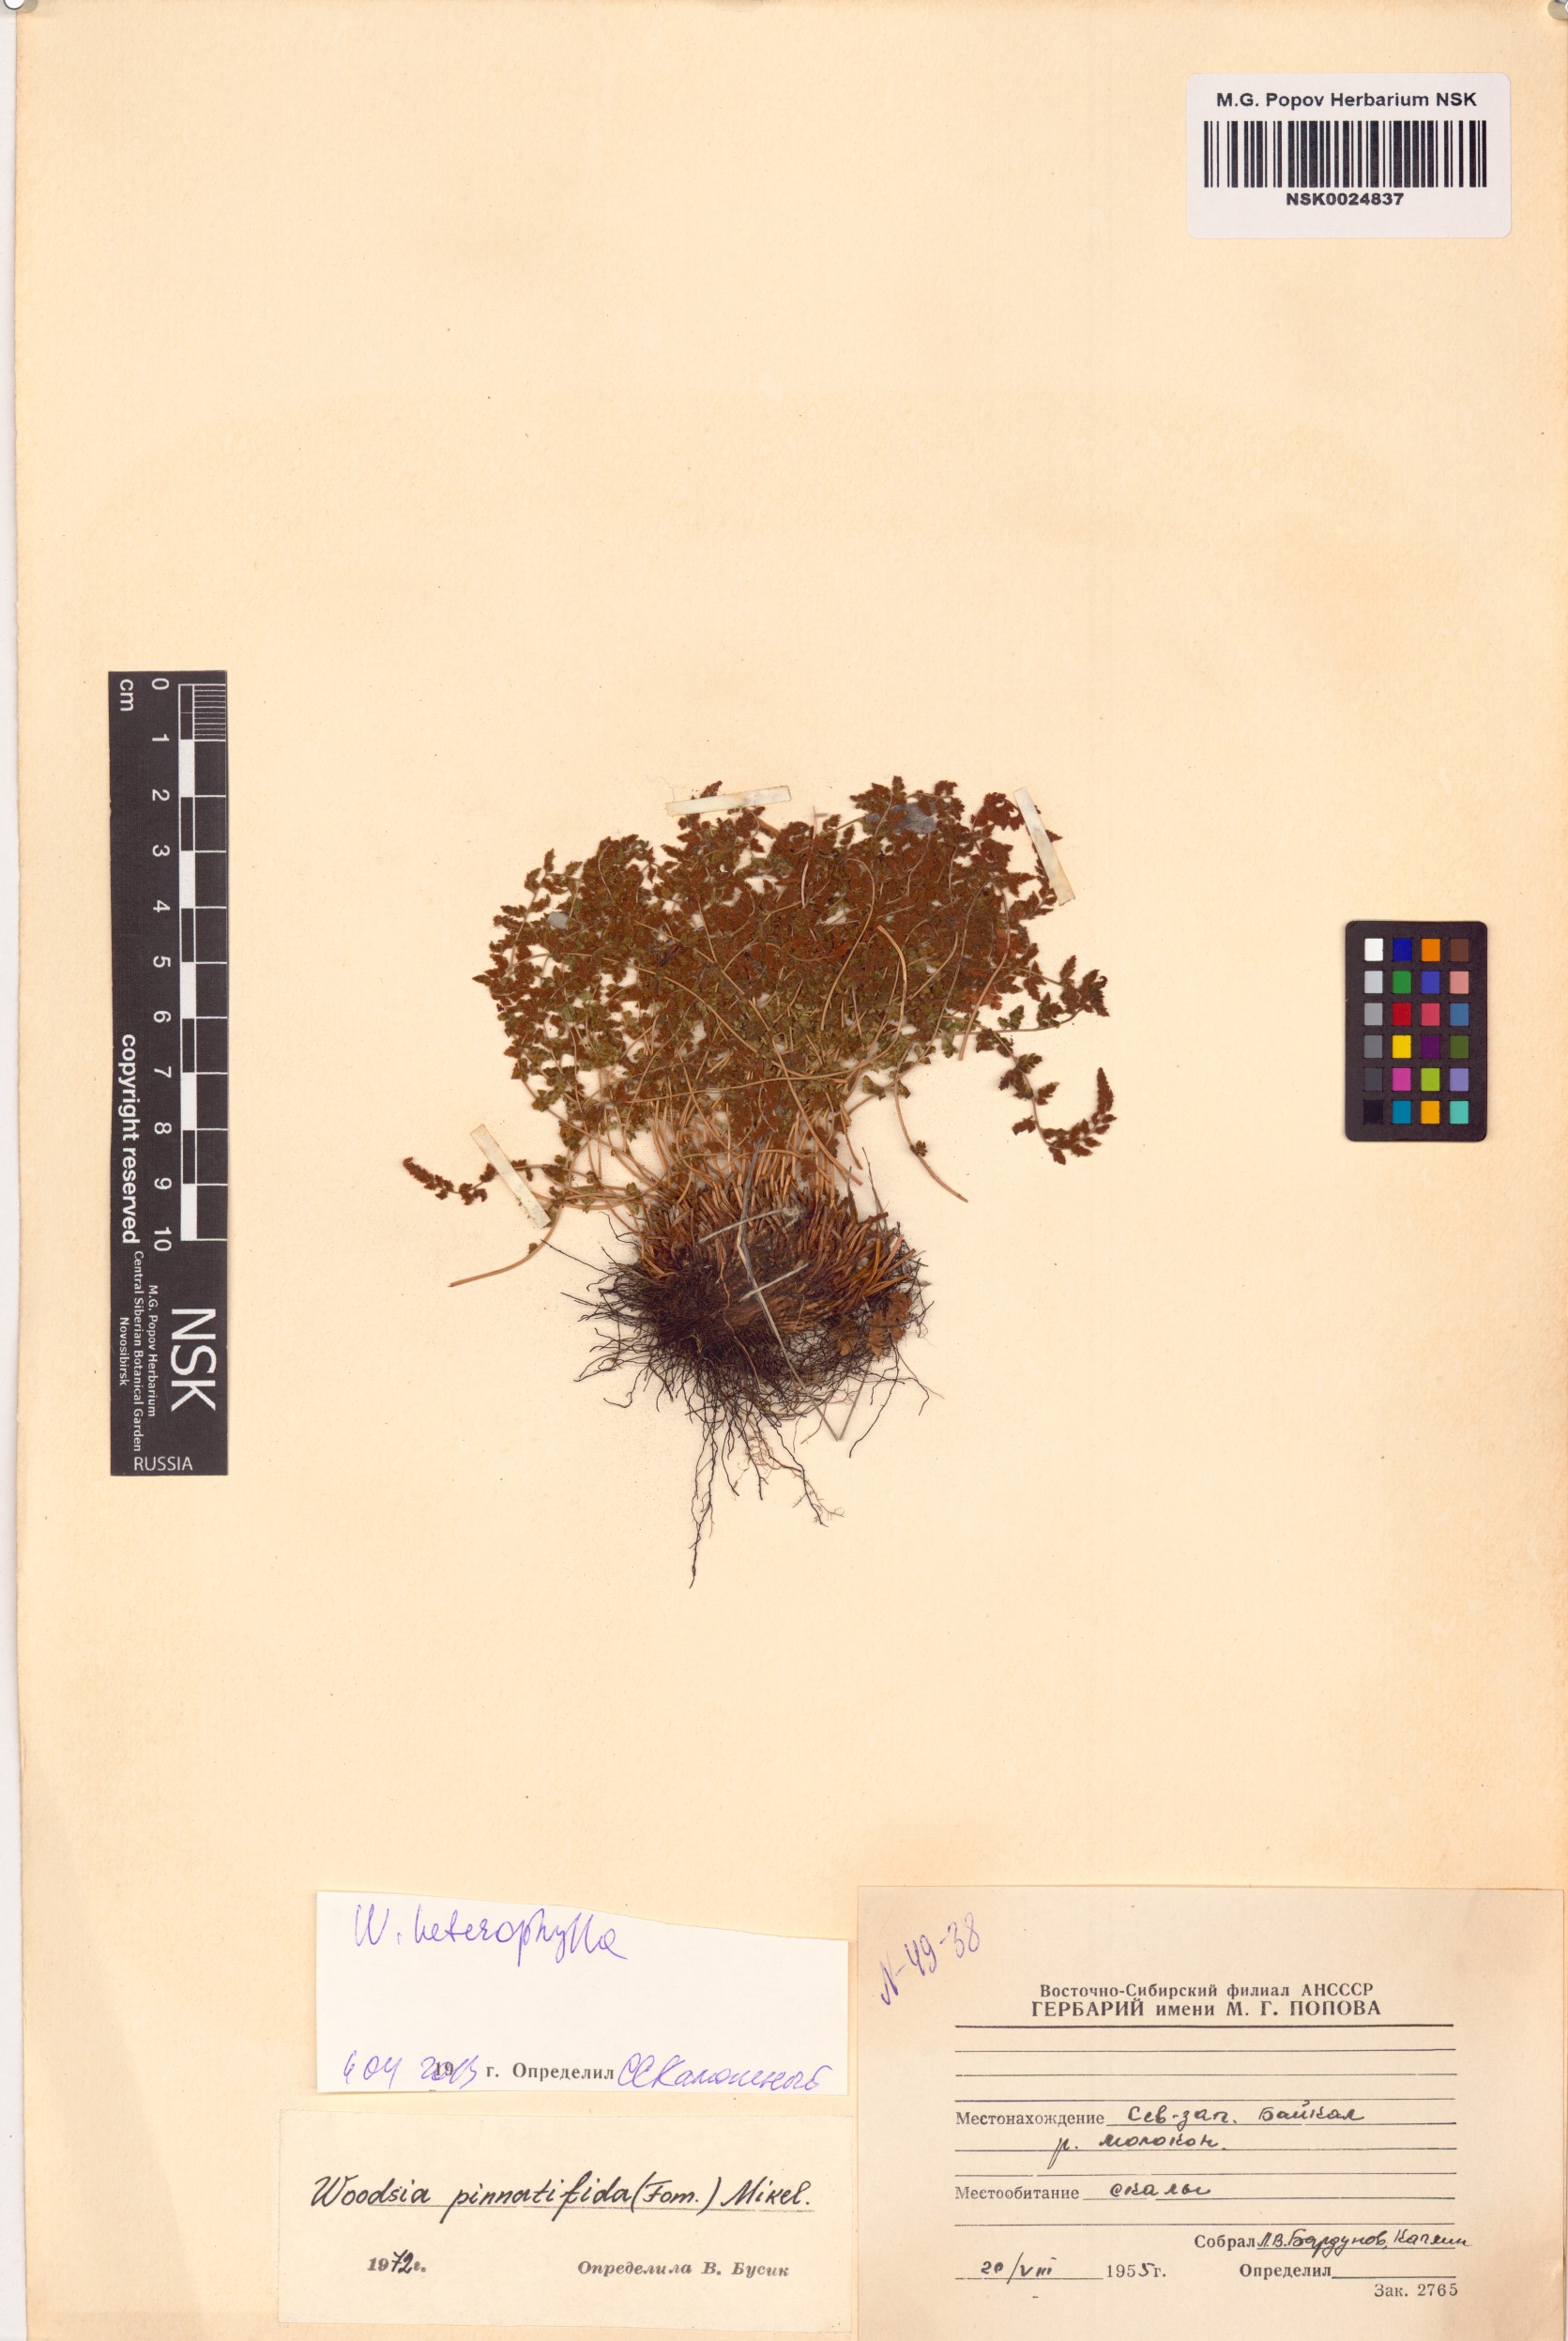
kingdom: Plantae
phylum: Tracheophyta
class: Polypodiopsida
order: Polypodiales
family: Woodsiaceae
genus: Woodsia
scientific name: Woodsia pulchella
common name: Graceful woodsia
